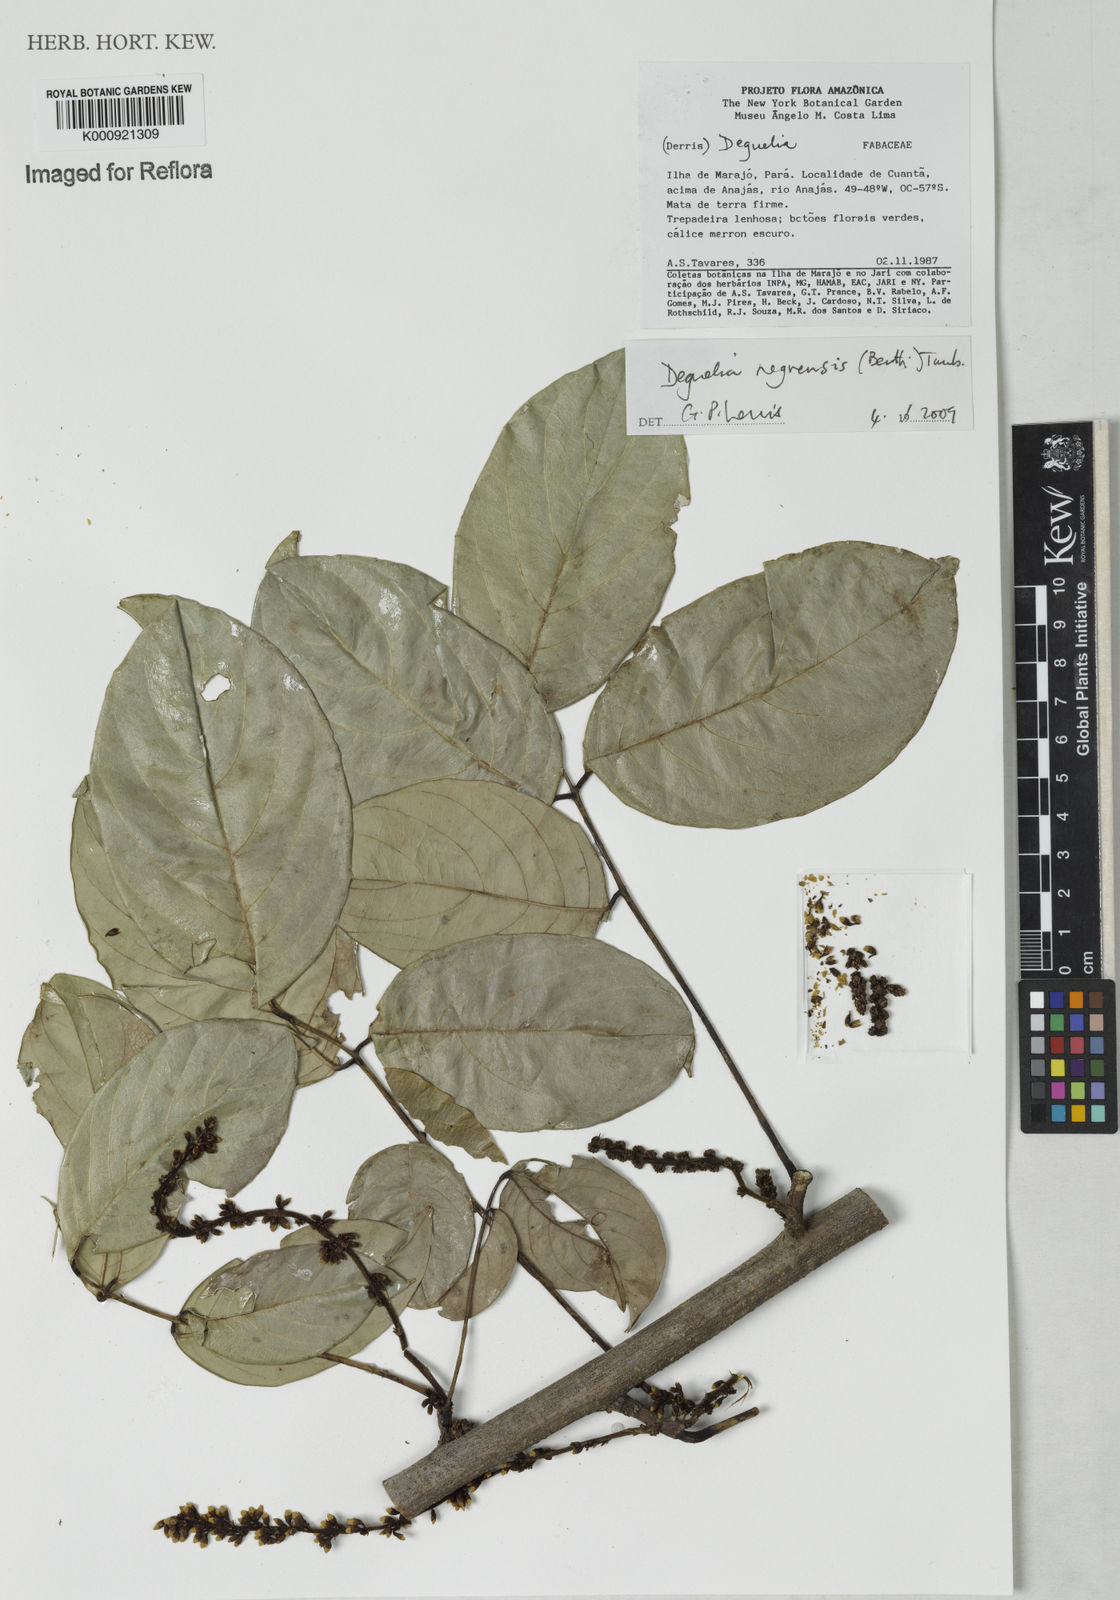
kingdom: Plantae
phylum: Tracheophyta
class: Magnoliopsida
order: Fabales
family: Fabaceae
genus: Deguelia
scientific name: Deguelia negrensis
